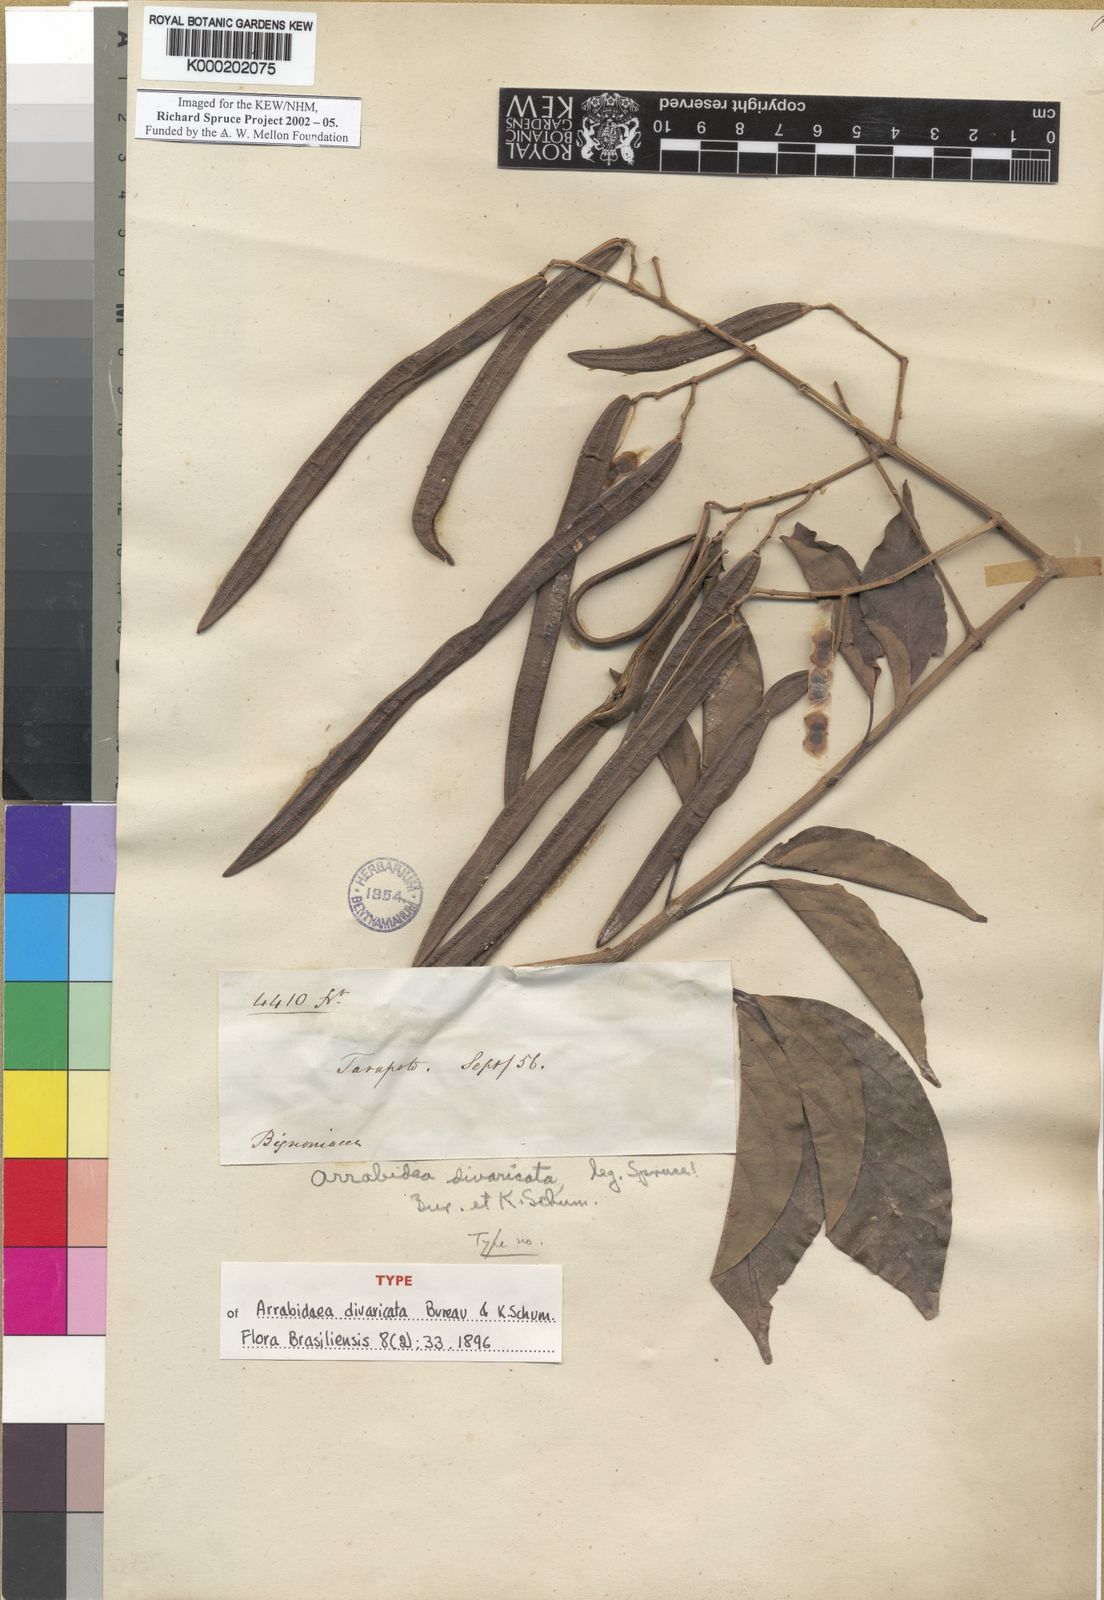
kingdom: Plantae
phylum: Tracheophyta
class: Magnoliopsida
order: Lamiales
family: Bignoniaceae
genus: Fridericia
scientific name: Fridericia florida
